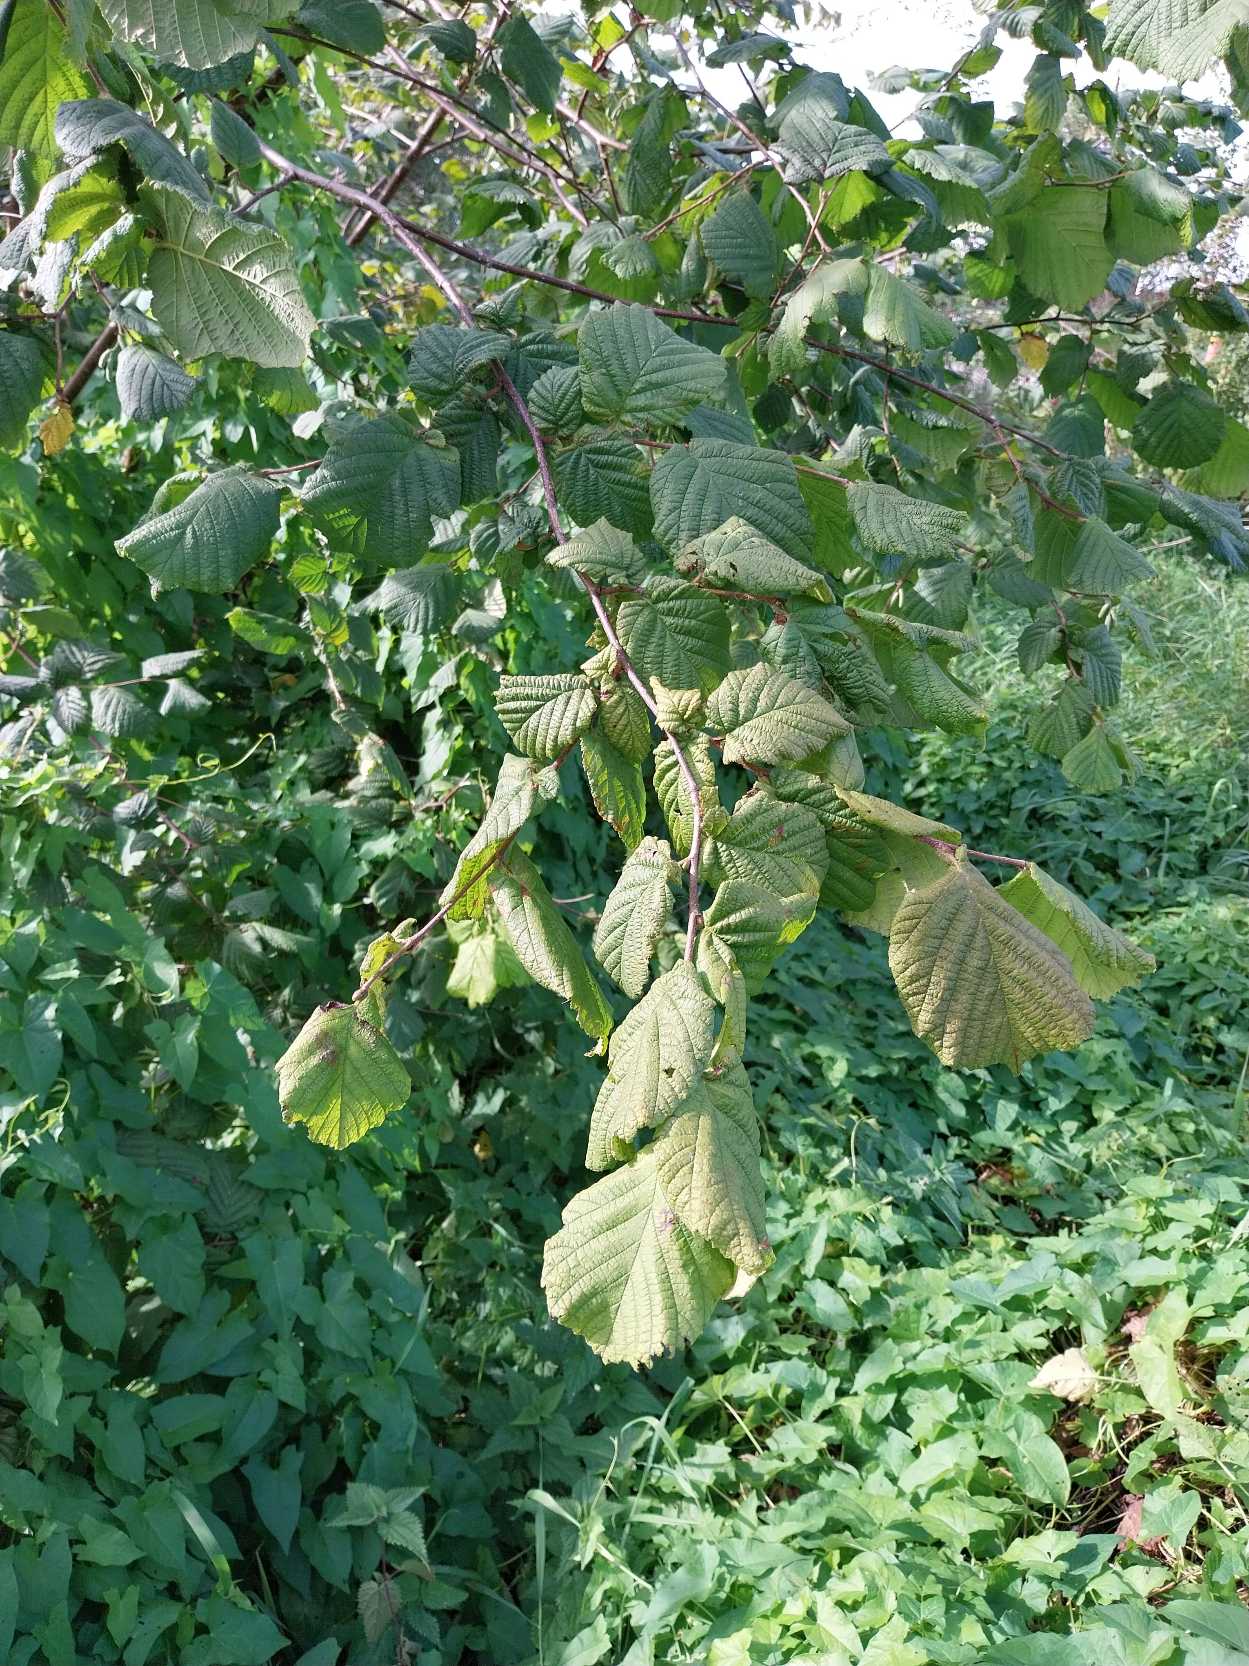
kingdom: Plantae
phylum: Tracheophyta
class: Magnoliopsida
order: Fagales
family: Betulaceae
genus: Corylus
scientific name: Corylus avellana
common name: Hassel
